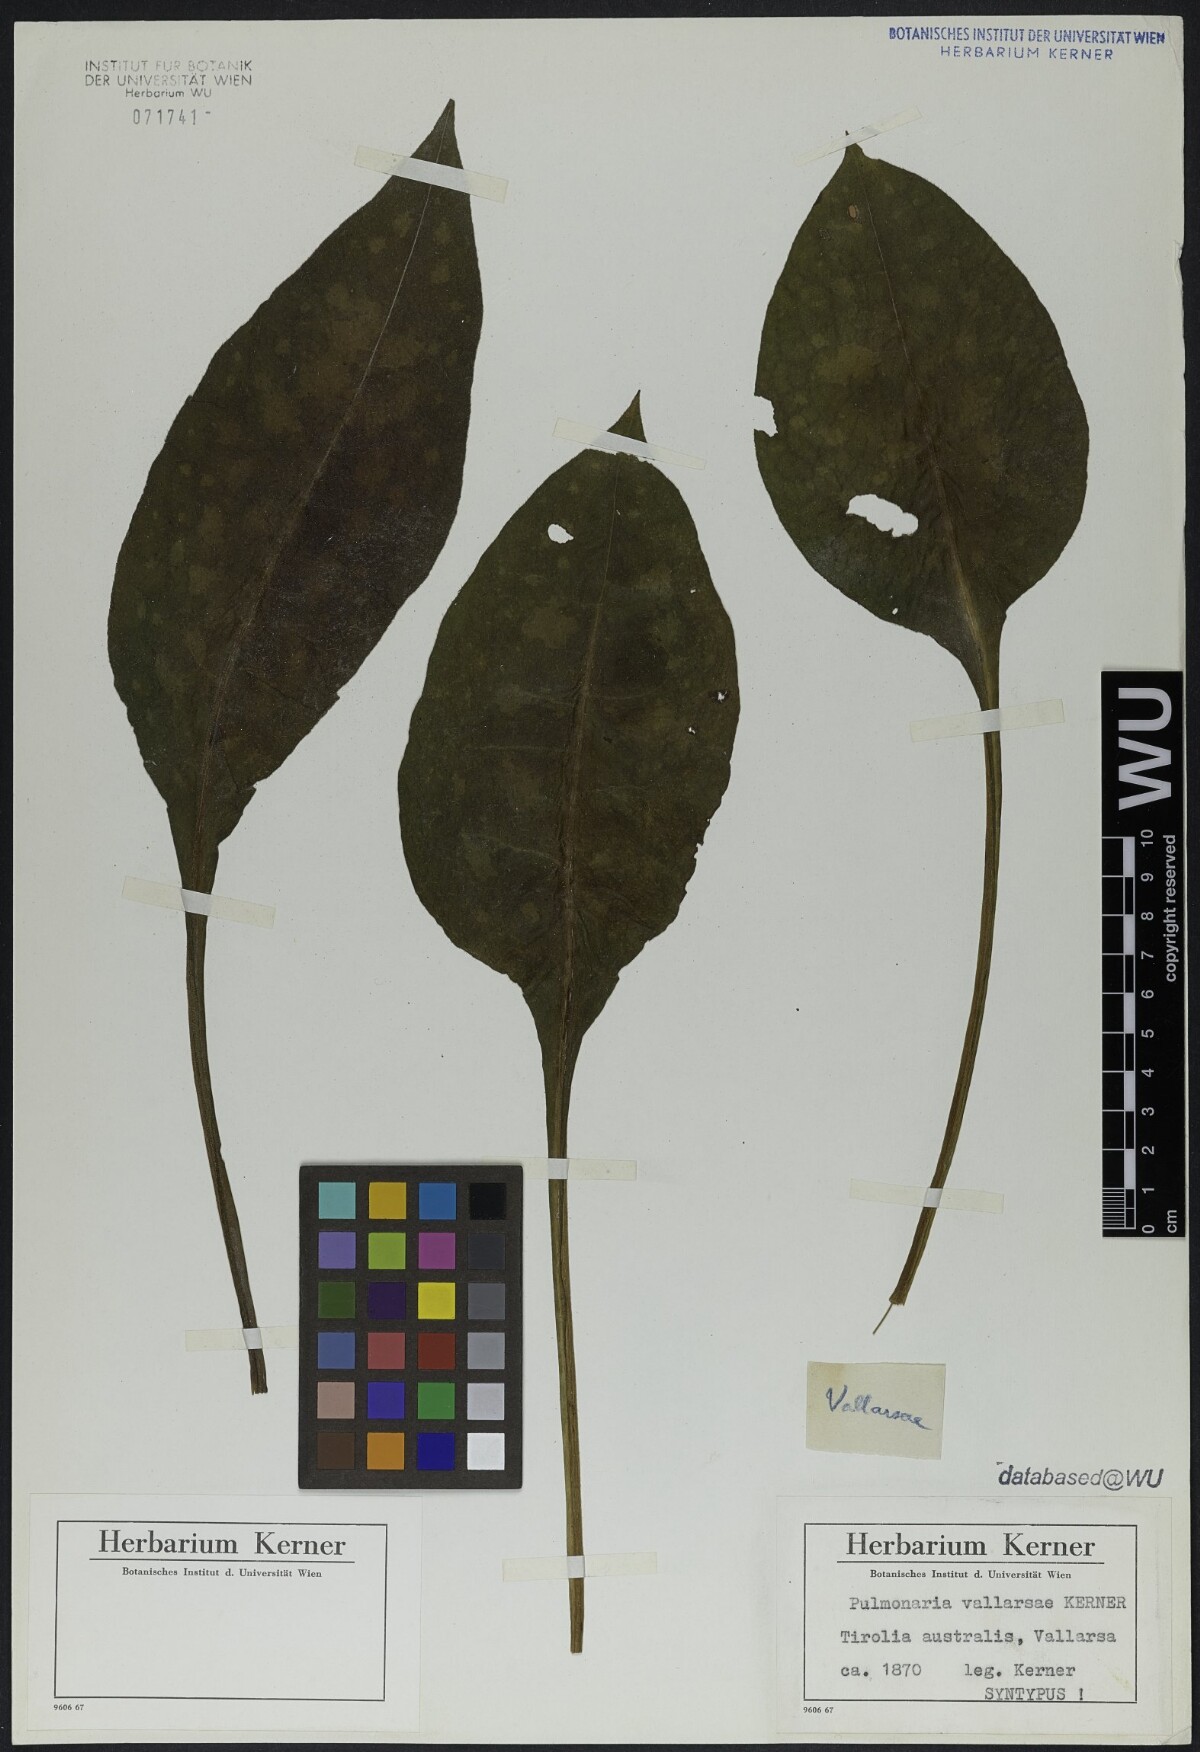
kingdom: Plantae
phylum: Tracheophyta
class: Magnoliopsida
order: Boraginales
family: Boraginaceae
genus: Pulmonaria
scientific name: Pulmonaria hirta
